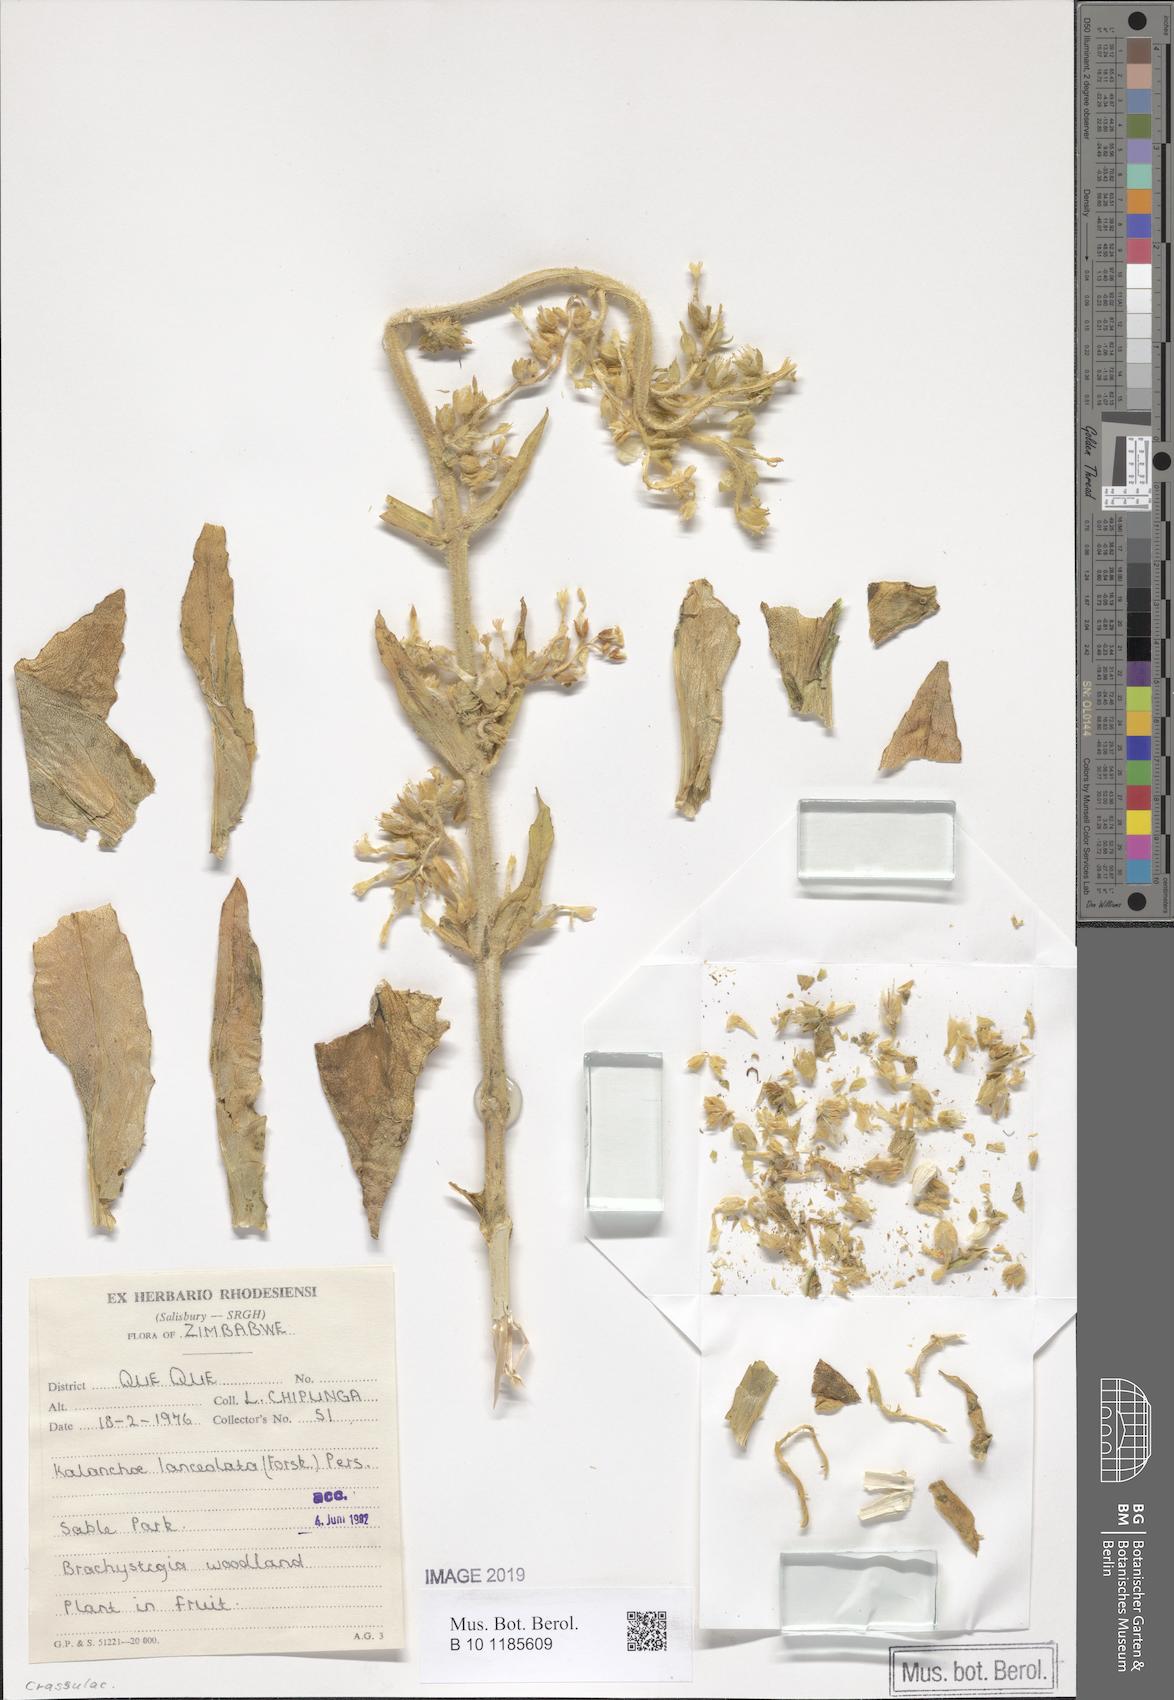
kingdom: Plantae
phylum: Tracheophyta
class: Magnoliopsida
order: Saxifragales
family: Crassulaceae
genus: Kalanchoe
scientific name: Kalanchoe lanceolata
